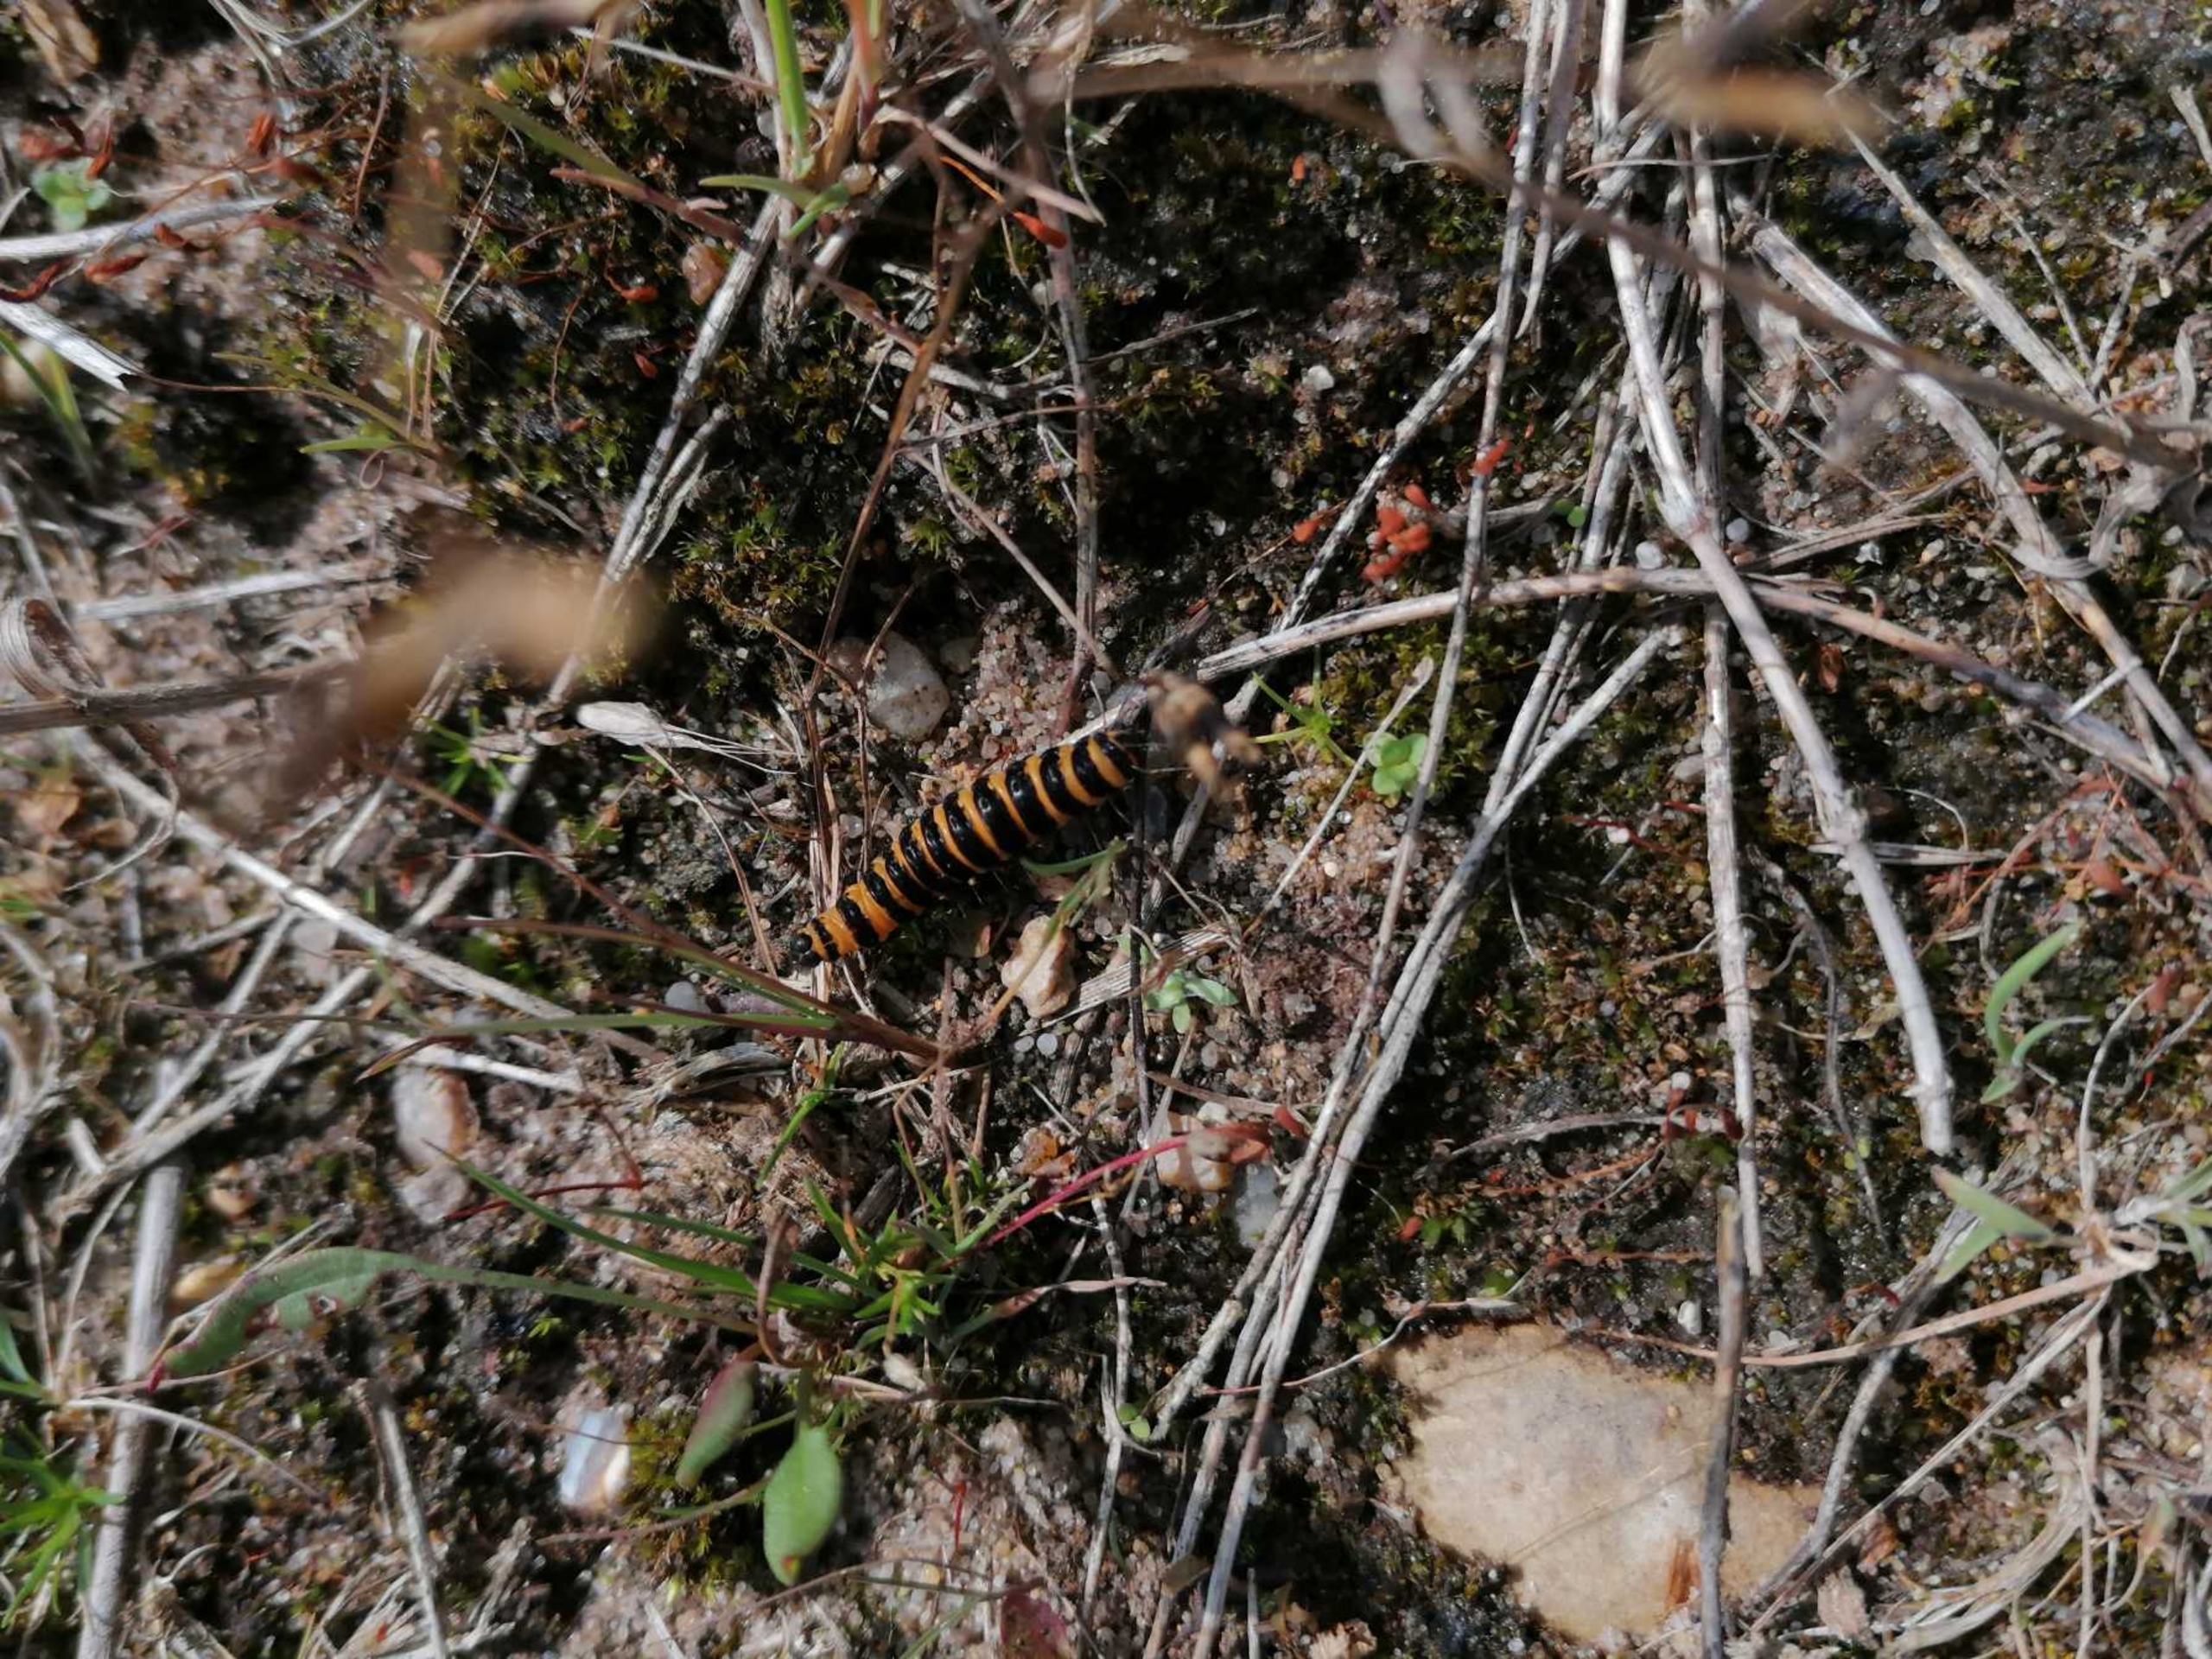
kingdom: Animalia
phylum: Arthropoda
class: Insecta
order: Lepidoptera
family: Erebidae
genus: Tyria
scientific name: Tyria jacobaeae
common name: Blodplet
